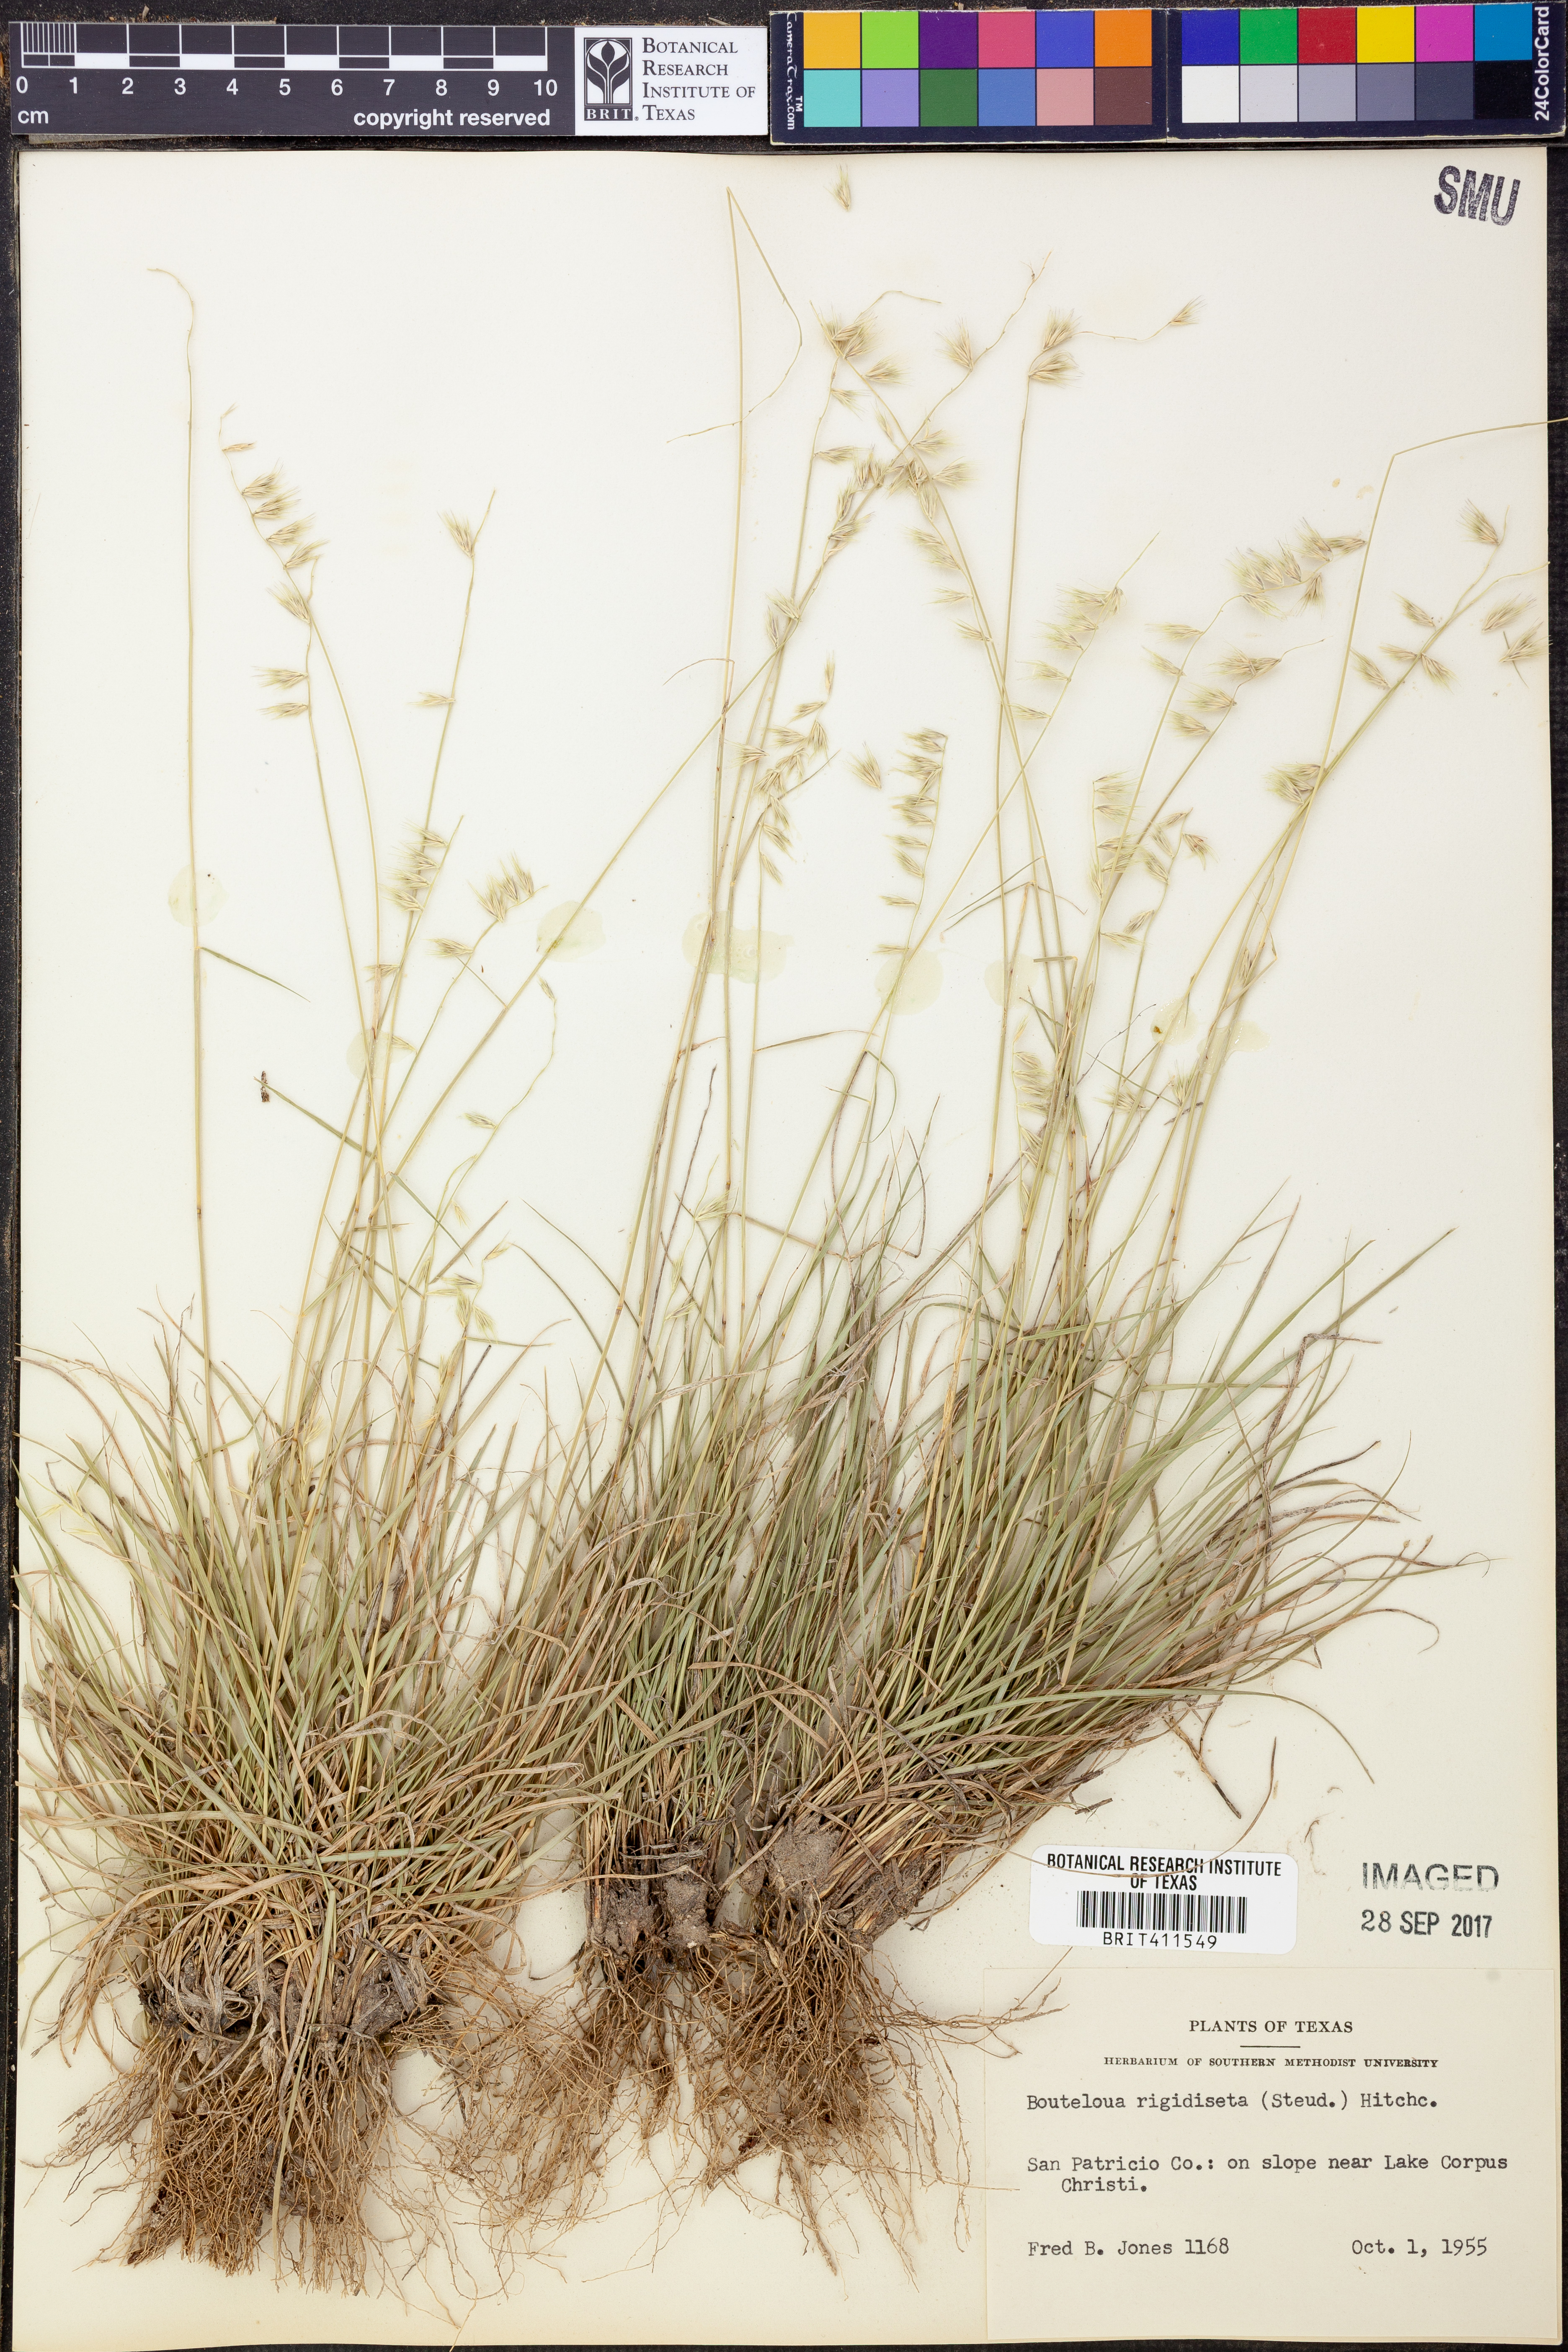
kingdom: Plantae
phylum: Tracheophyta
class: Liliopsida
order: Poales
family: Poaceae
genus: Bouteloua
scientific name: Bouteloua rigidiseta
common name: Texas grama
